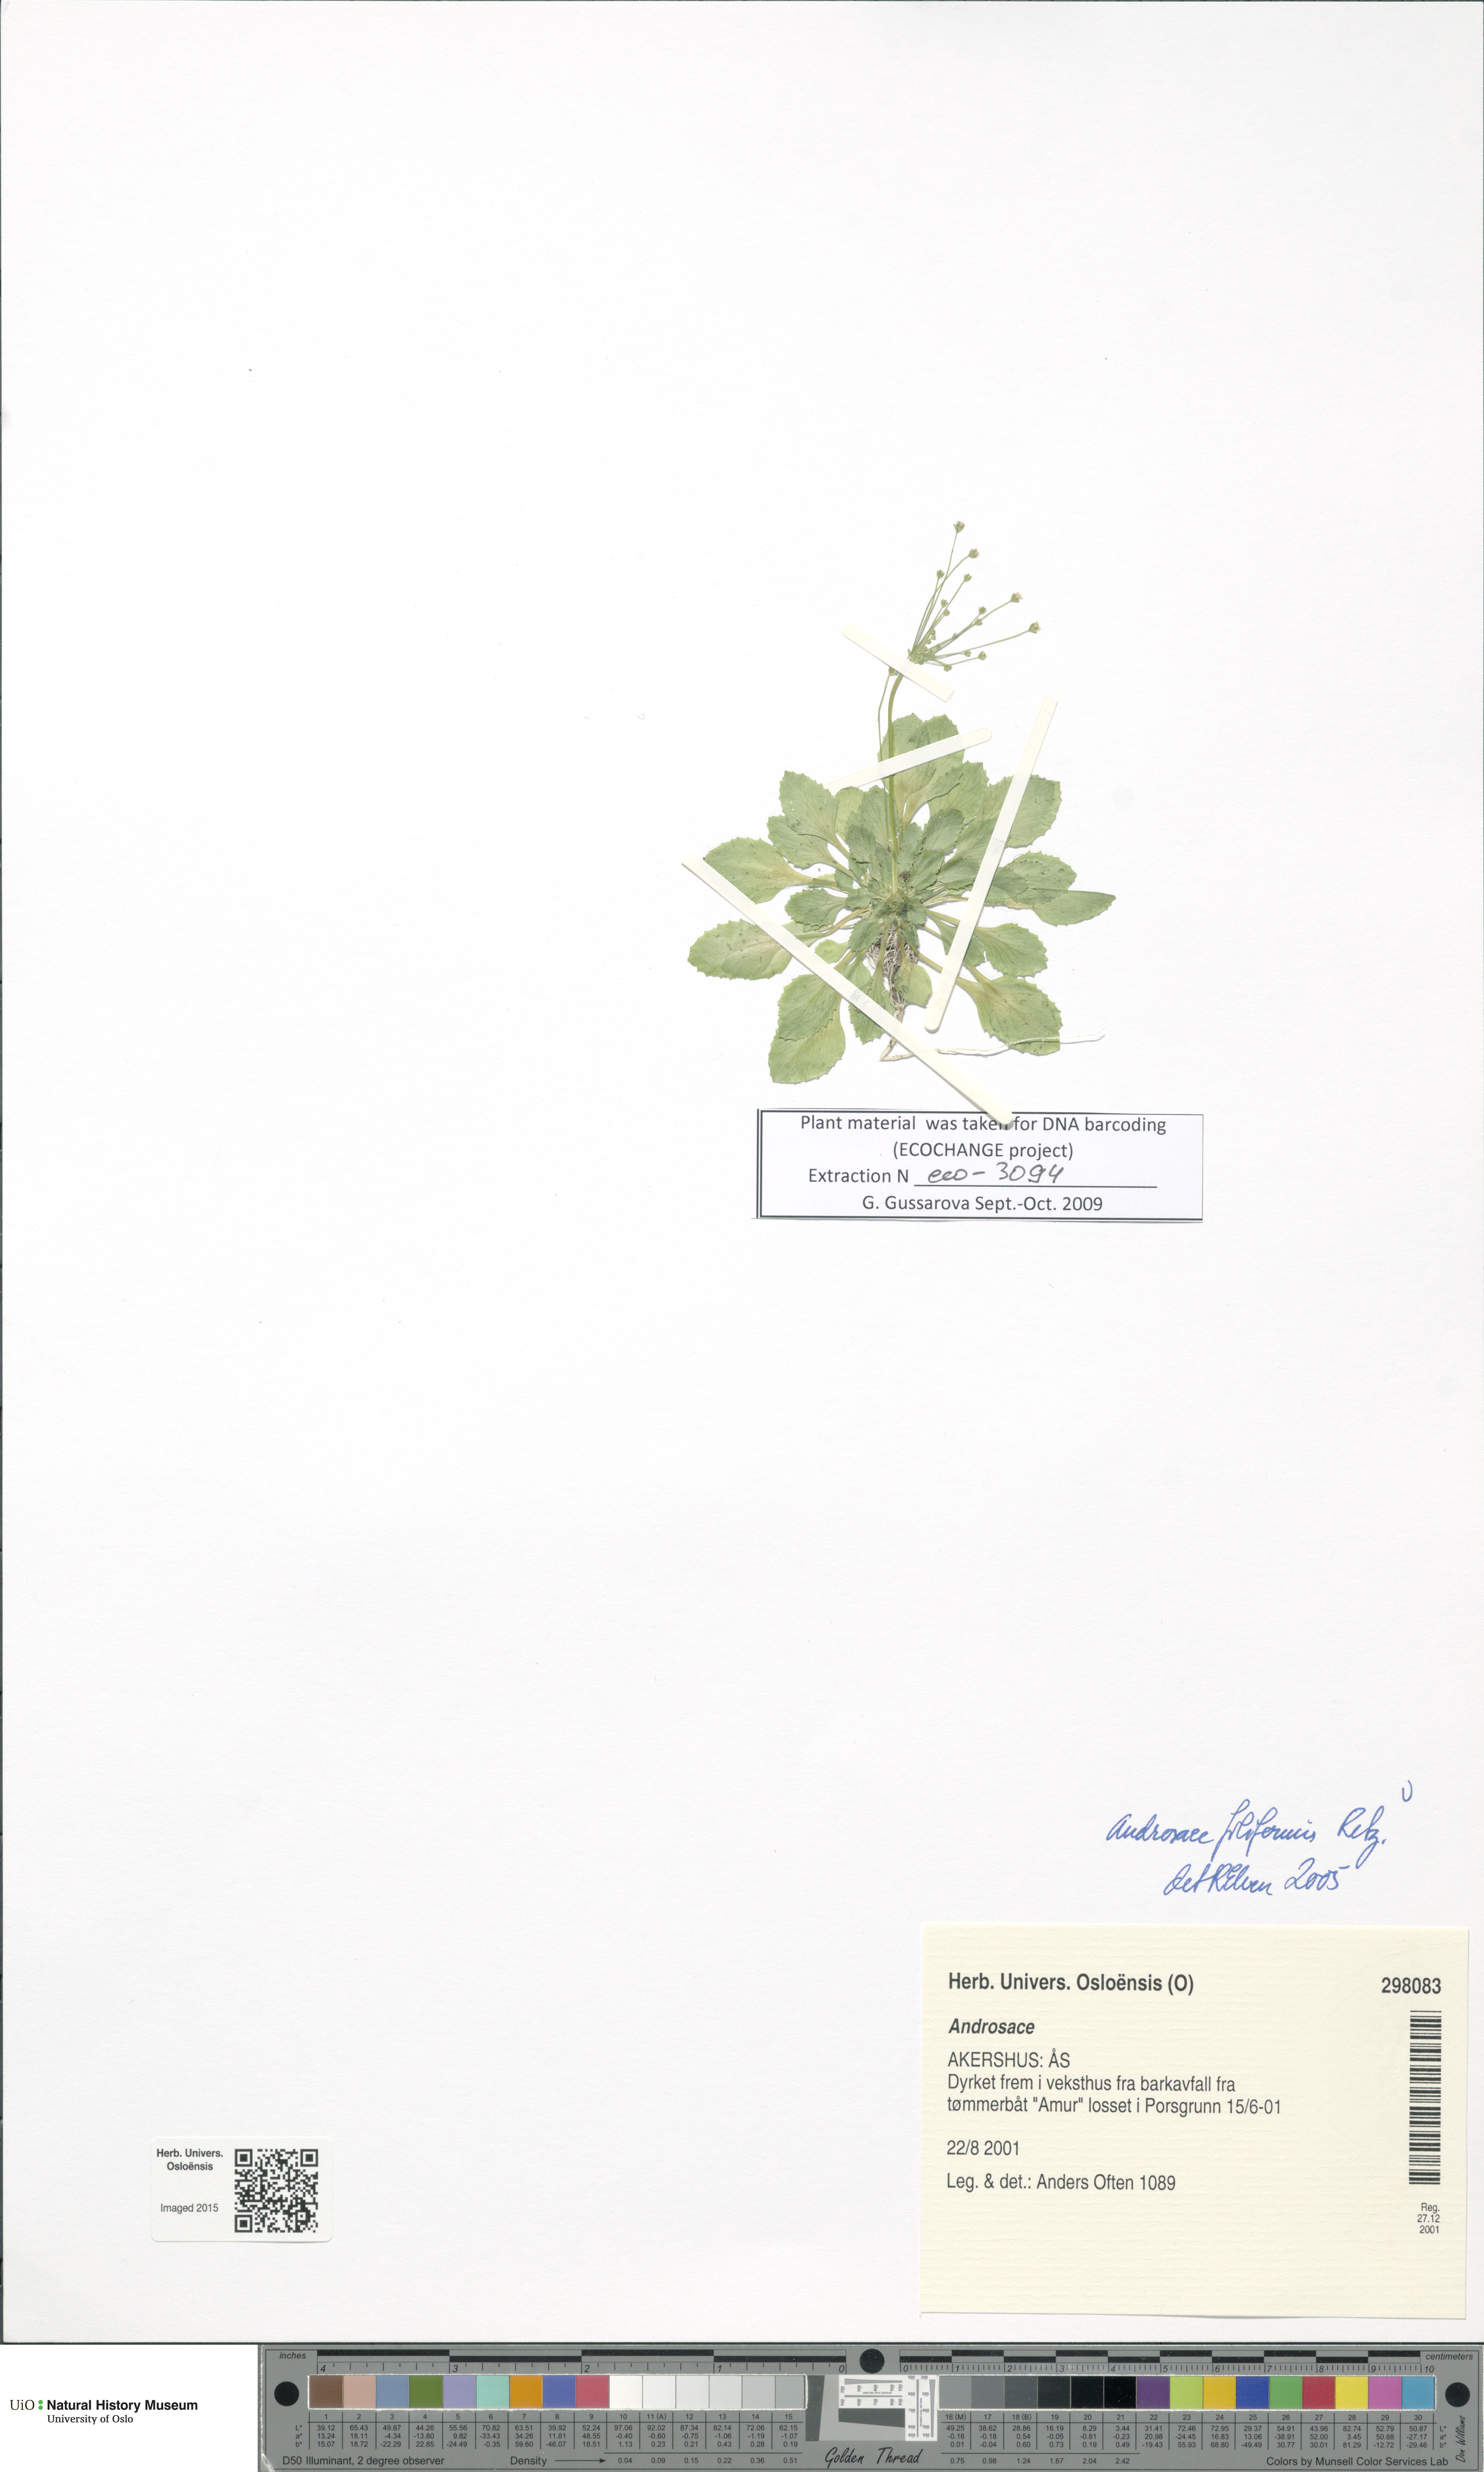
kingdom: Plantae
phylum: Tracheophyta
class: Magnoliopsida
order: Ericales
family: Primulaceae
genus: Androsace
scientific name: Androsace filiformis
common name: Filiform rock jasmine
